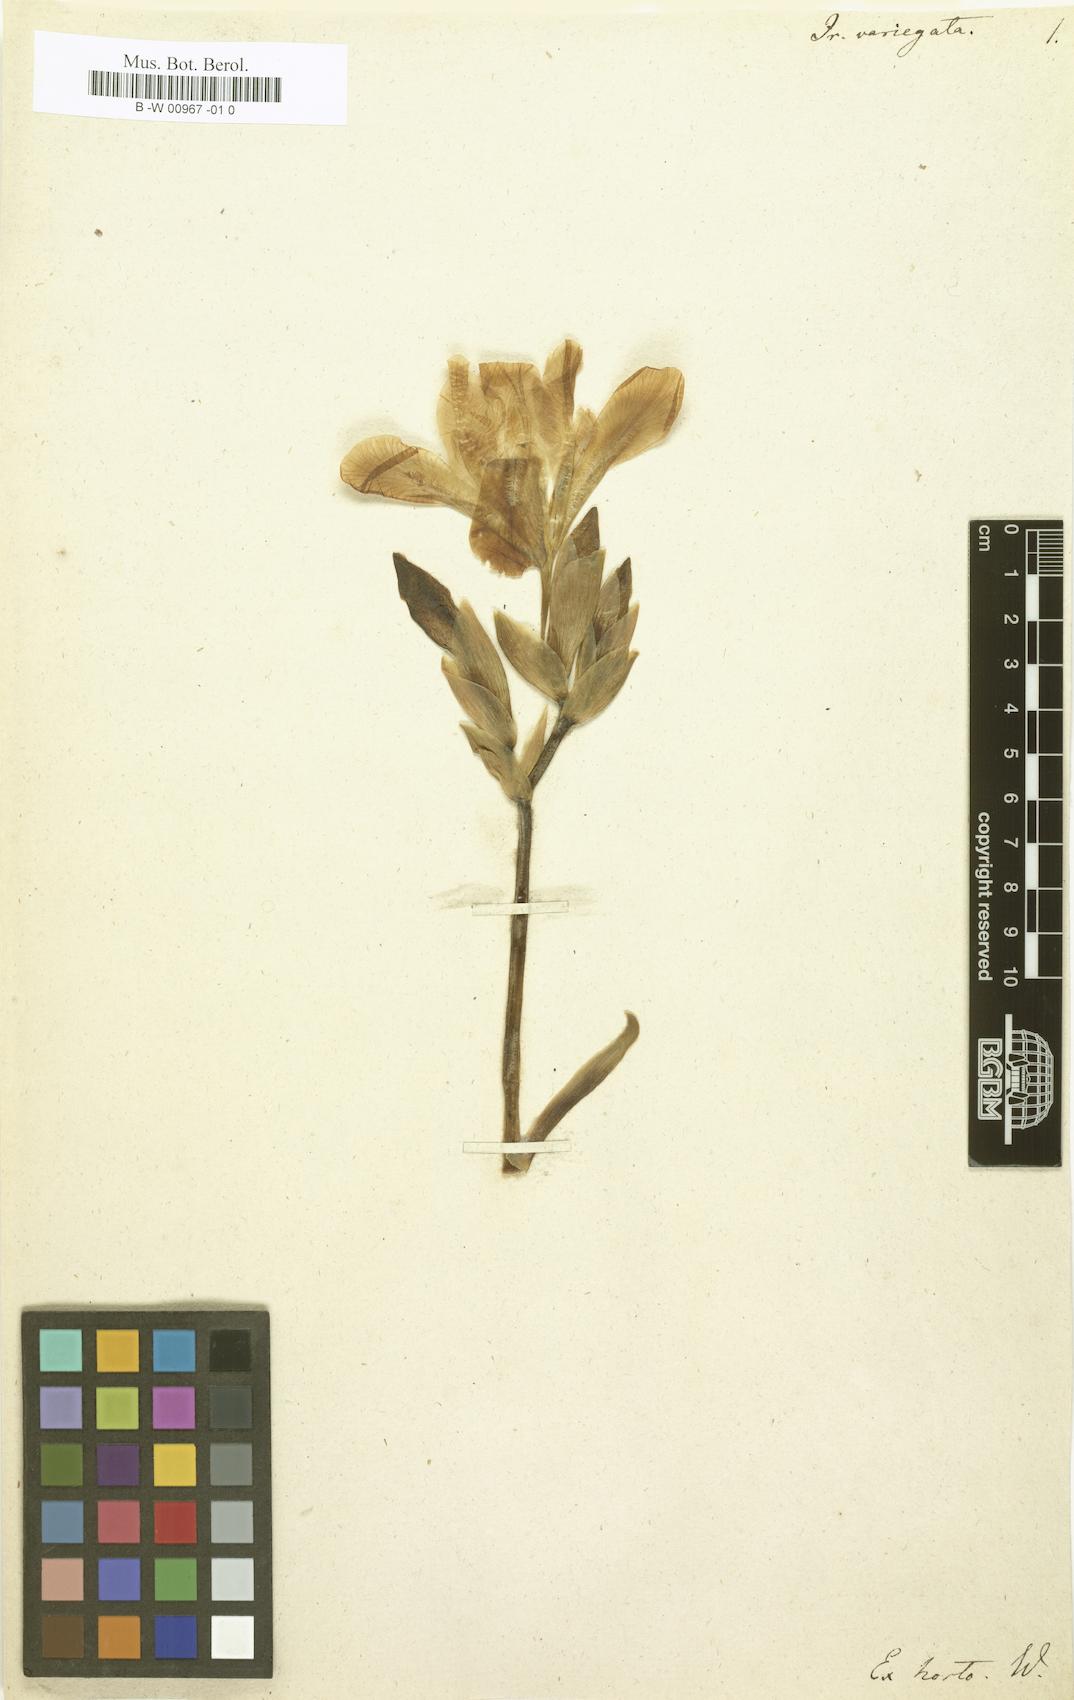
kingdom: Plantae
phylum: Tracheophyta
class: Liliopsida
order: Asparagales
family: Iridaceae
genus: Iris
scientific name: Iris variegata
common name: Hungarian iris
